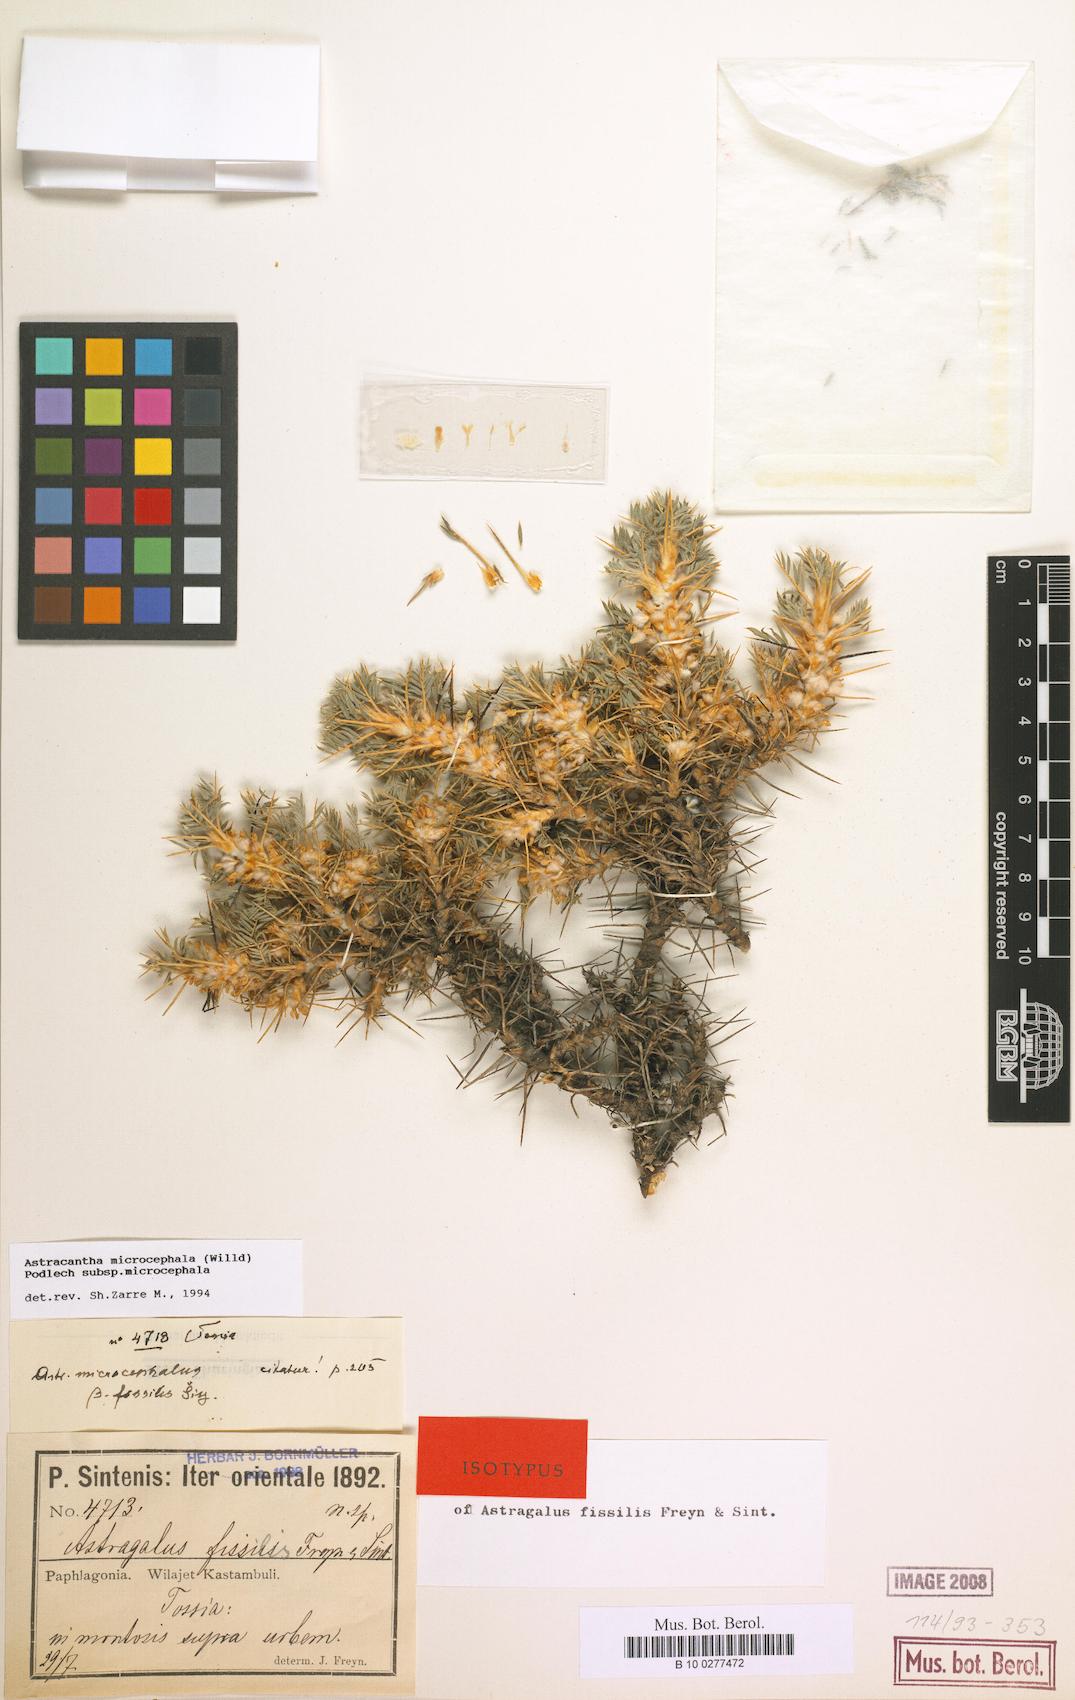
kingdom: Plantae
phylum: Tracheophyta
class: Magnoliopsida
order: Fabales
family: Fabaceae
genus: Astragalus
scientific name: Astragalus microcephalus
